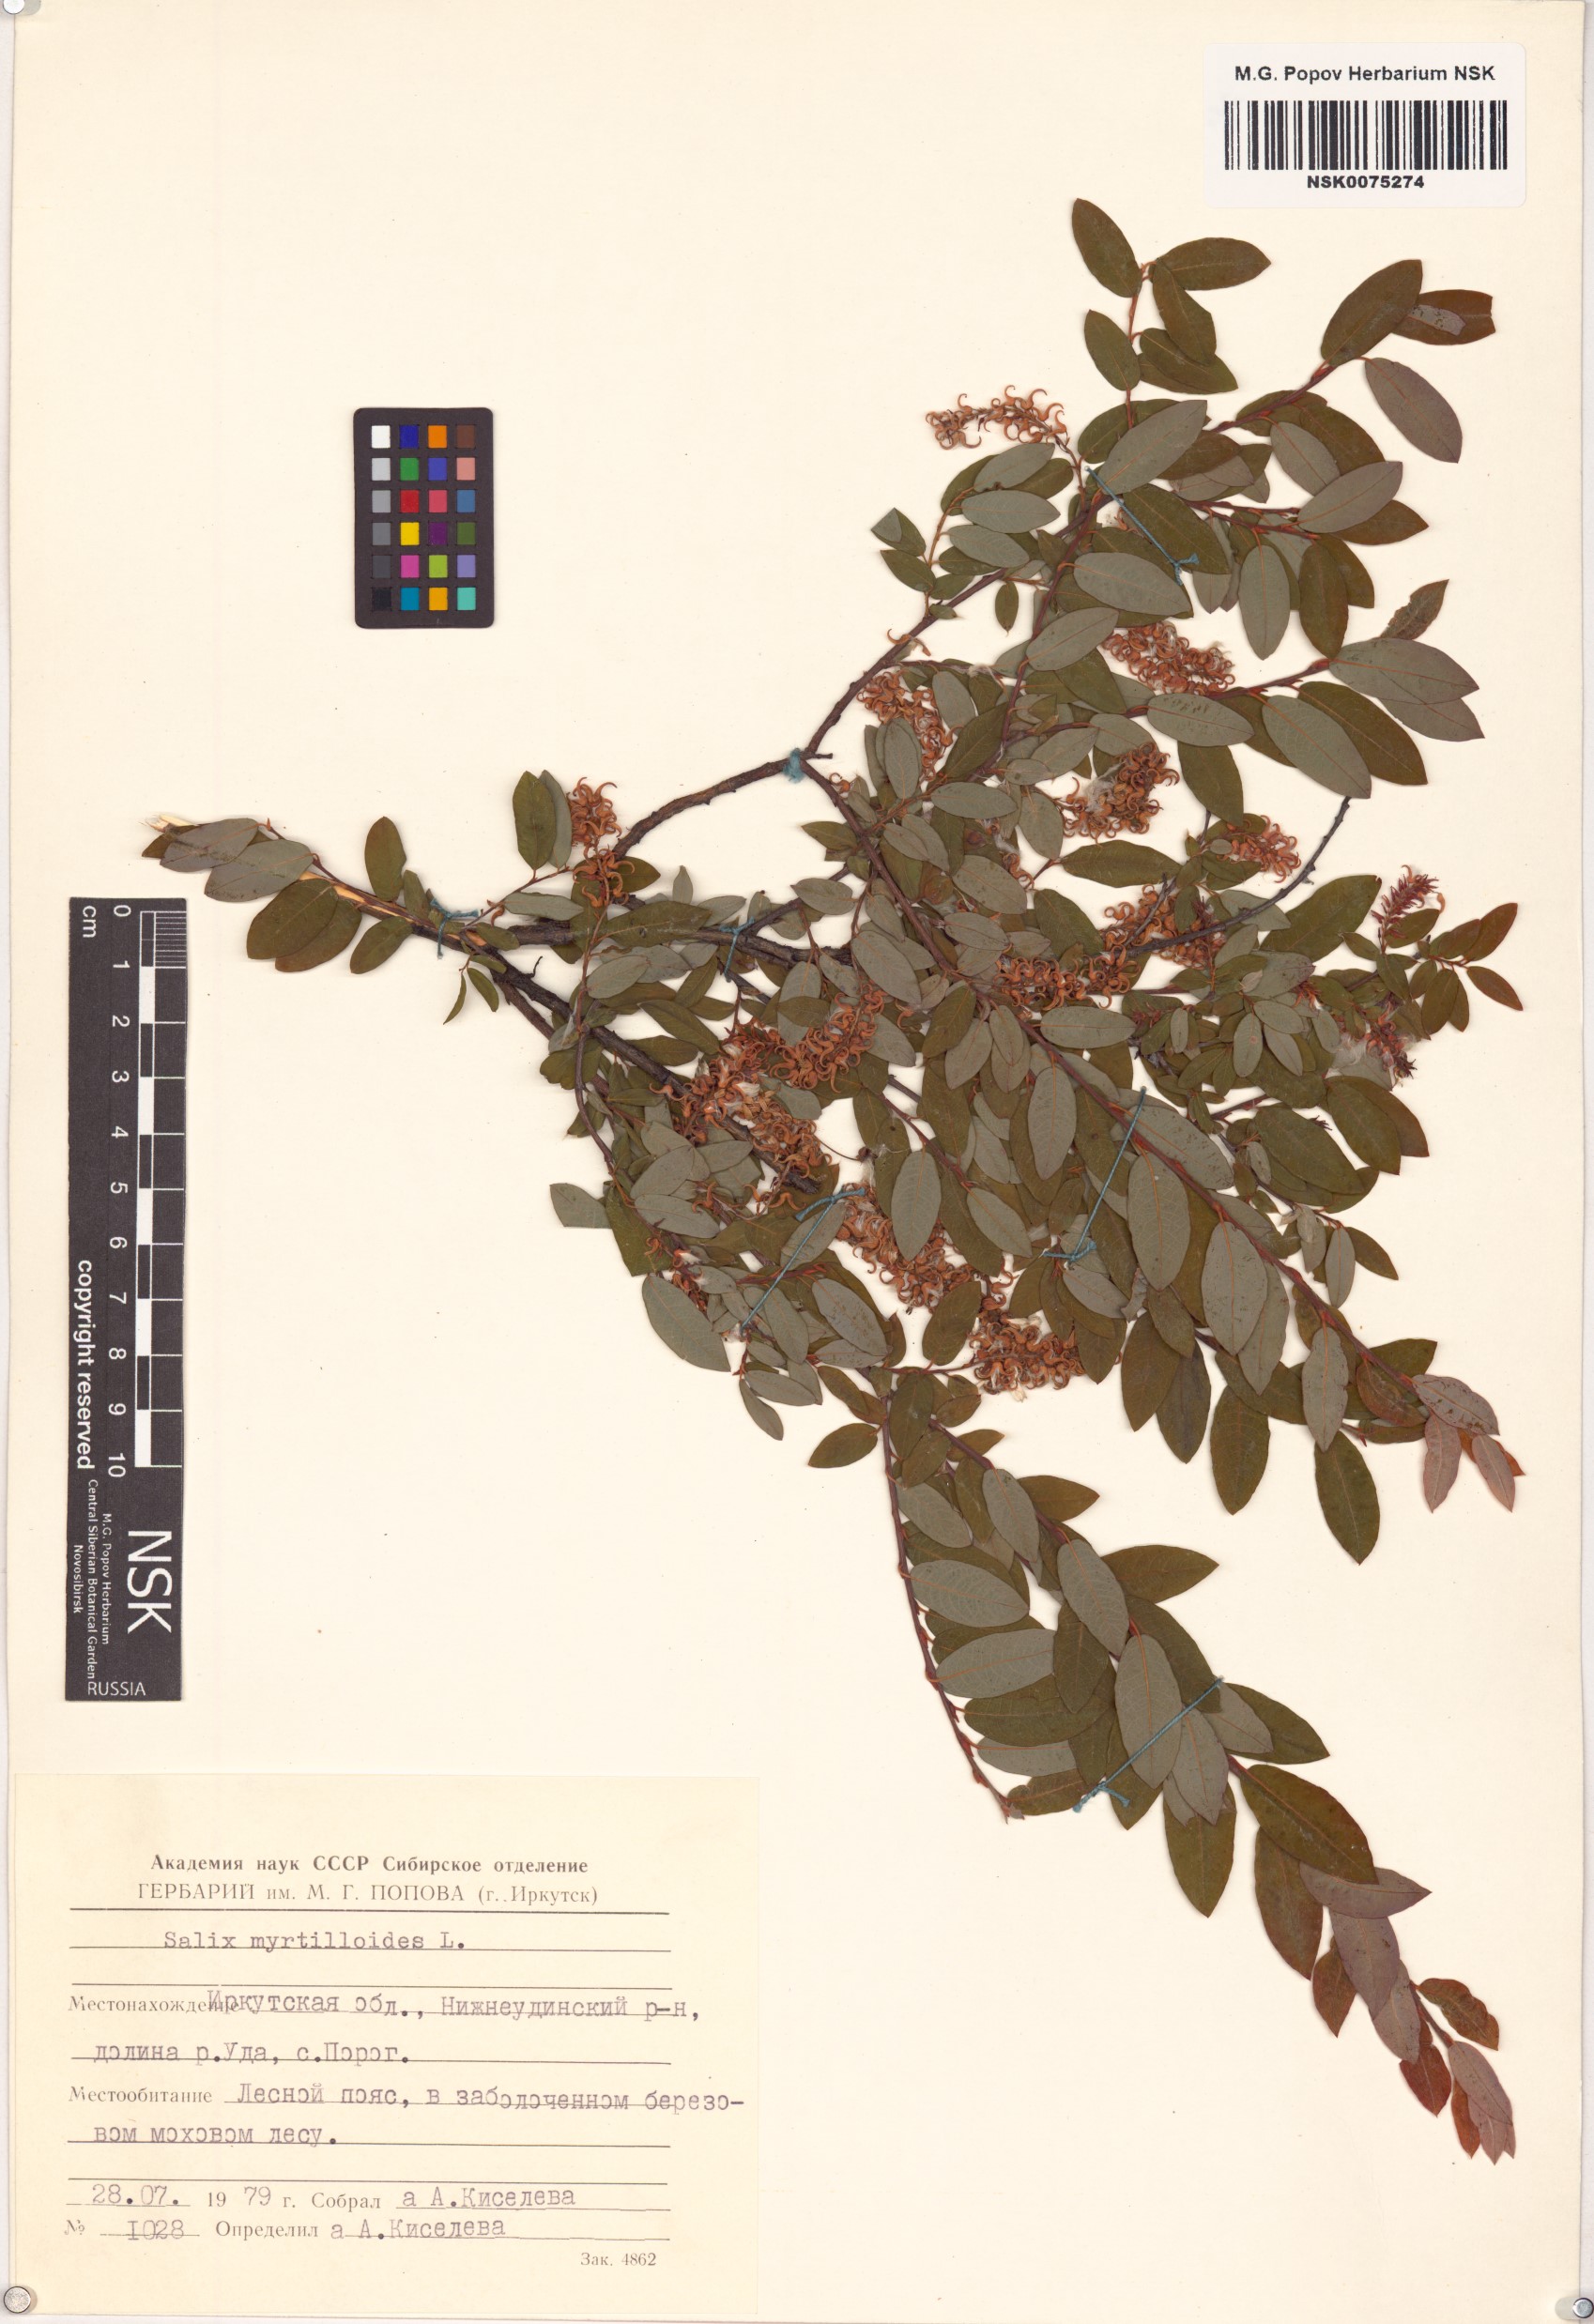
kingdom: Plantae
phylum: Tracheophyta
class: Magnoliopsida
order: Malpighiales
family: Salicaceae
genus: Salix
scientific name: Salix myrtilloides
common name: Myrtle-leaved willow
